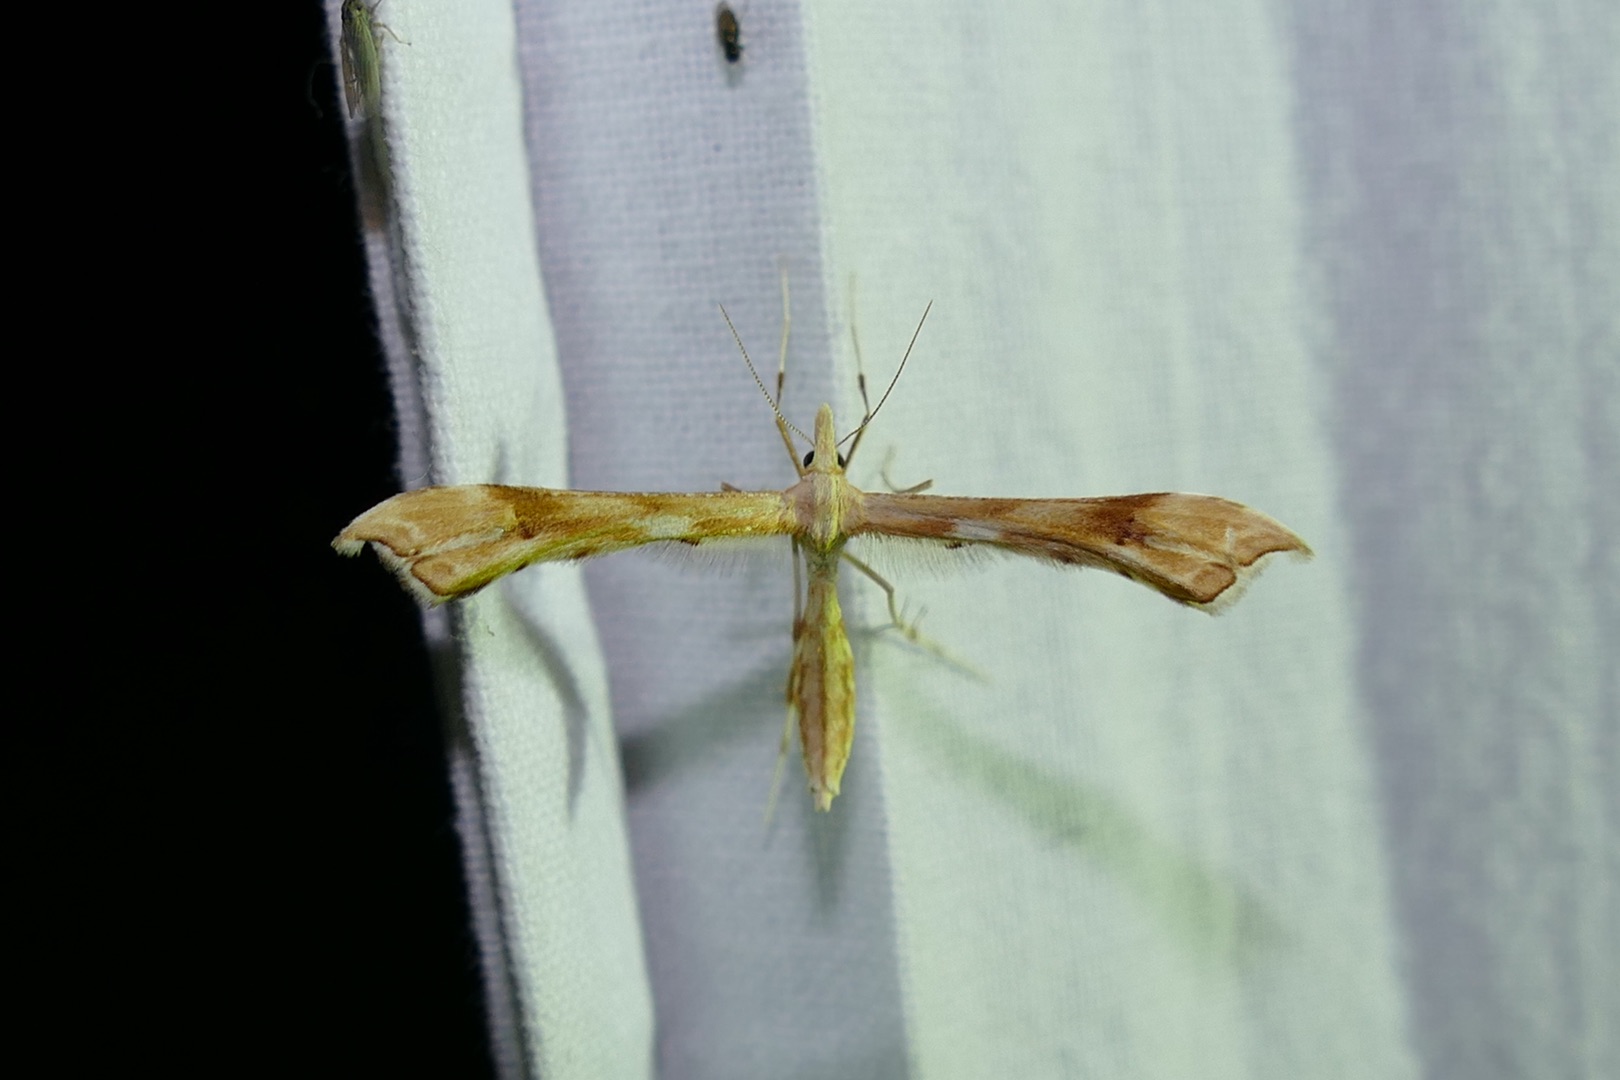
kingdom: Animalia
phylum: Arthropoda
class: Insecta
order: Lepidoptera
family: Pterophoridae
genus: Gillmeria
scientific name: Gillmeria ochrodactyla
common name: Rejnfanfjermøl
